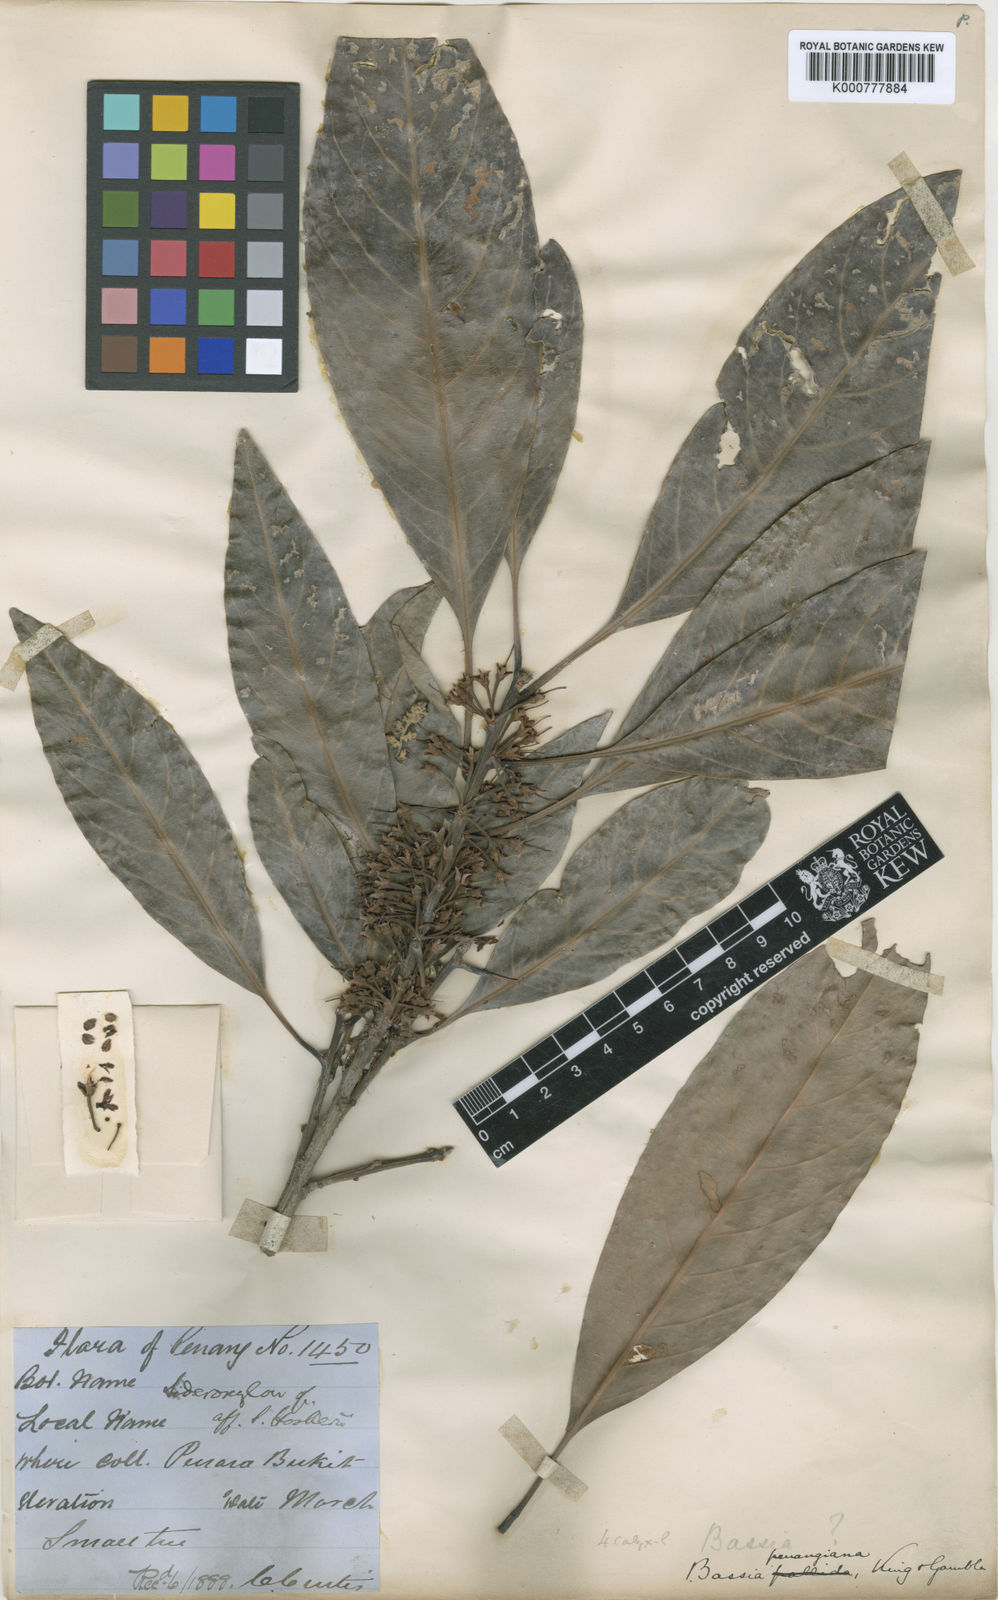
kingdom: Plantae
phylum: Tracheophyta
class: Magnoliopsida
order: Ericales
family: Sapotaceae
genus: Madhuca
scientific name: Madhuca penangiana
